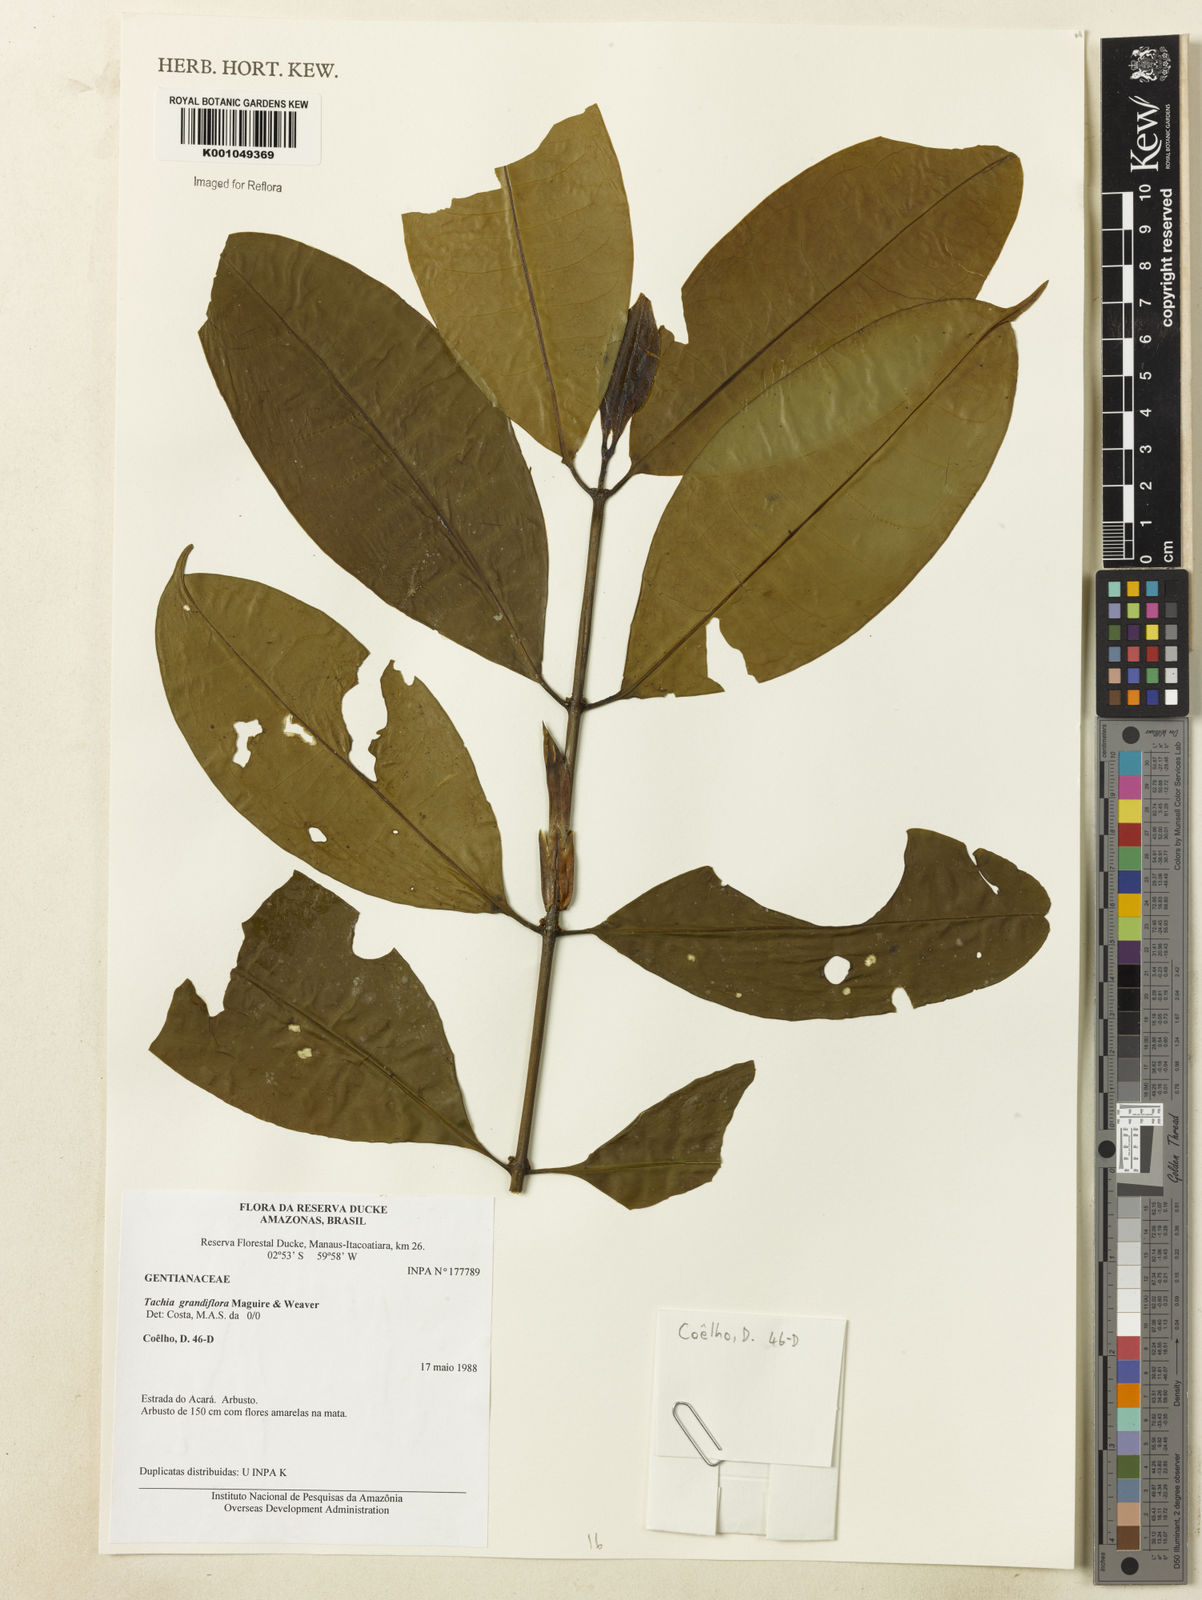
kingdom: Plantae
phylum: Tracheophyta
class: Magnoliopsida
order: Gentianales
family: Gentianaceae
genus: Tachia
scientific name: Tachia grandiflora
